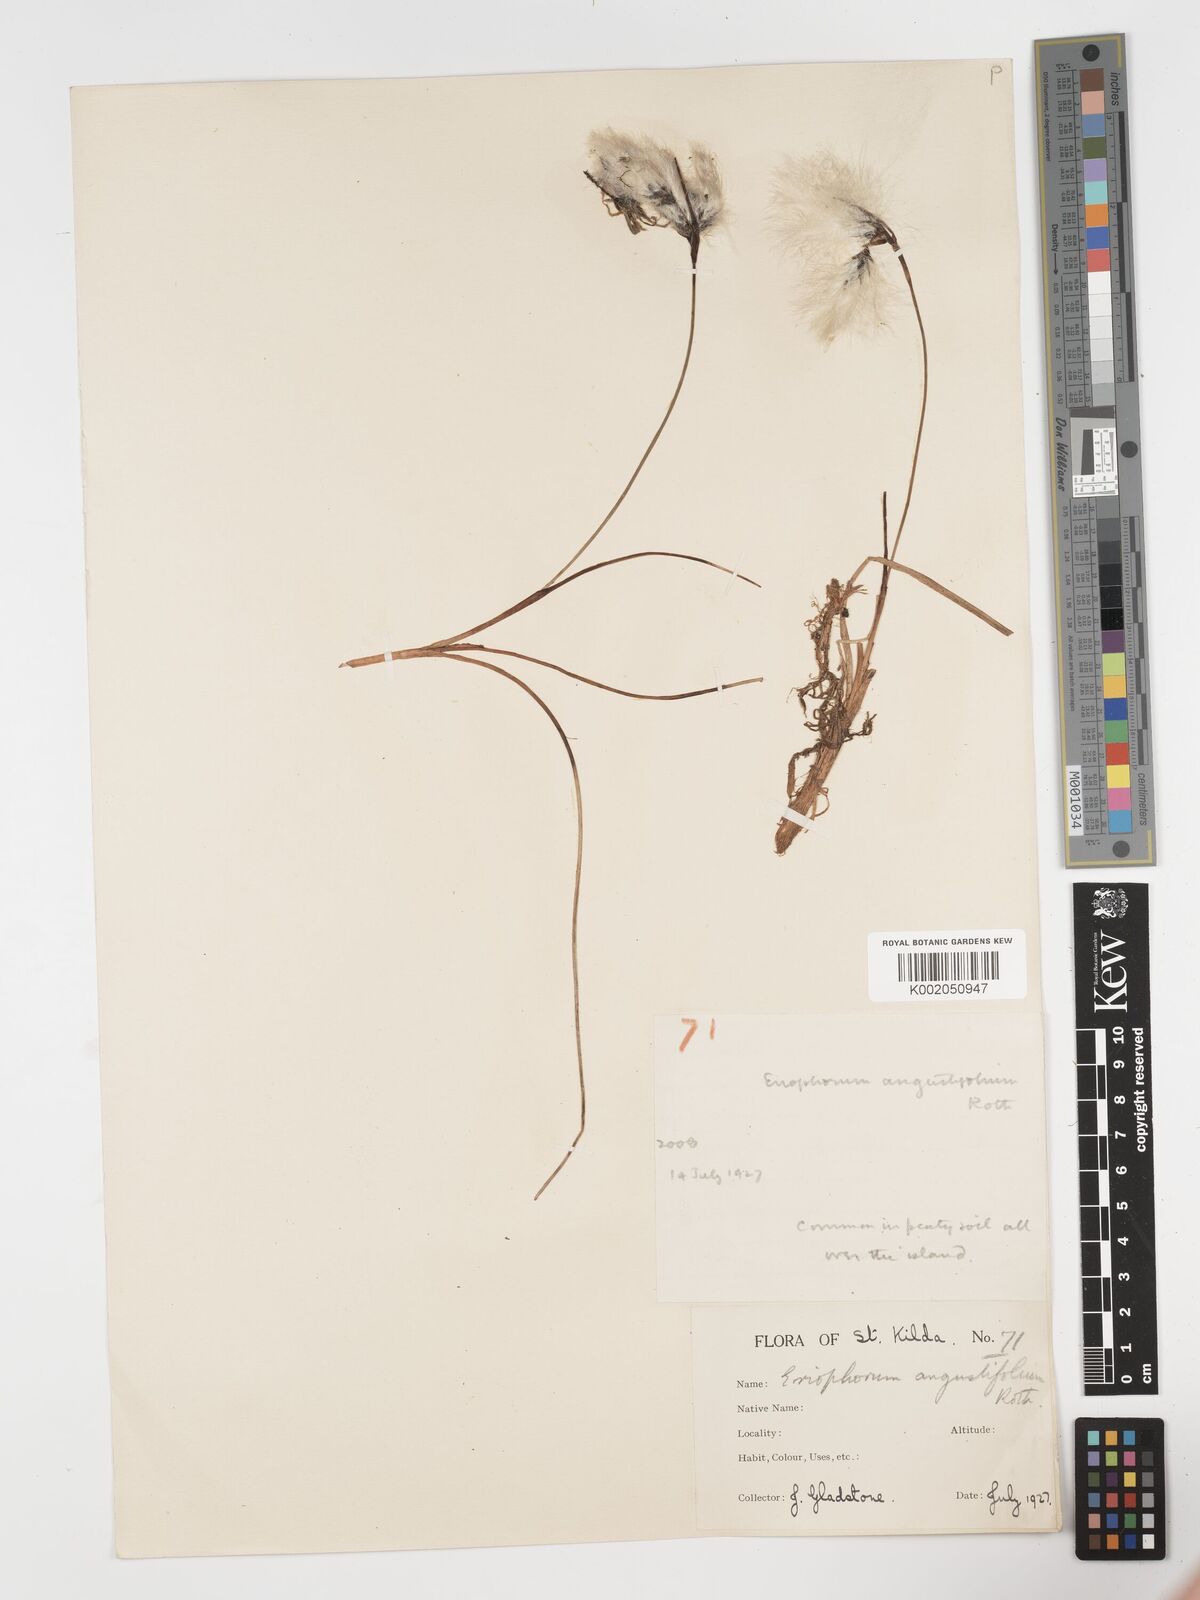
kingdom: Plantae
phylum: Tracheophyta
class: Liliopsida
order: Poales
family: Cyperaceae
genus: Eriophorum
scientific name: Eriophorum angustifolium
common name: Common cottongrass
